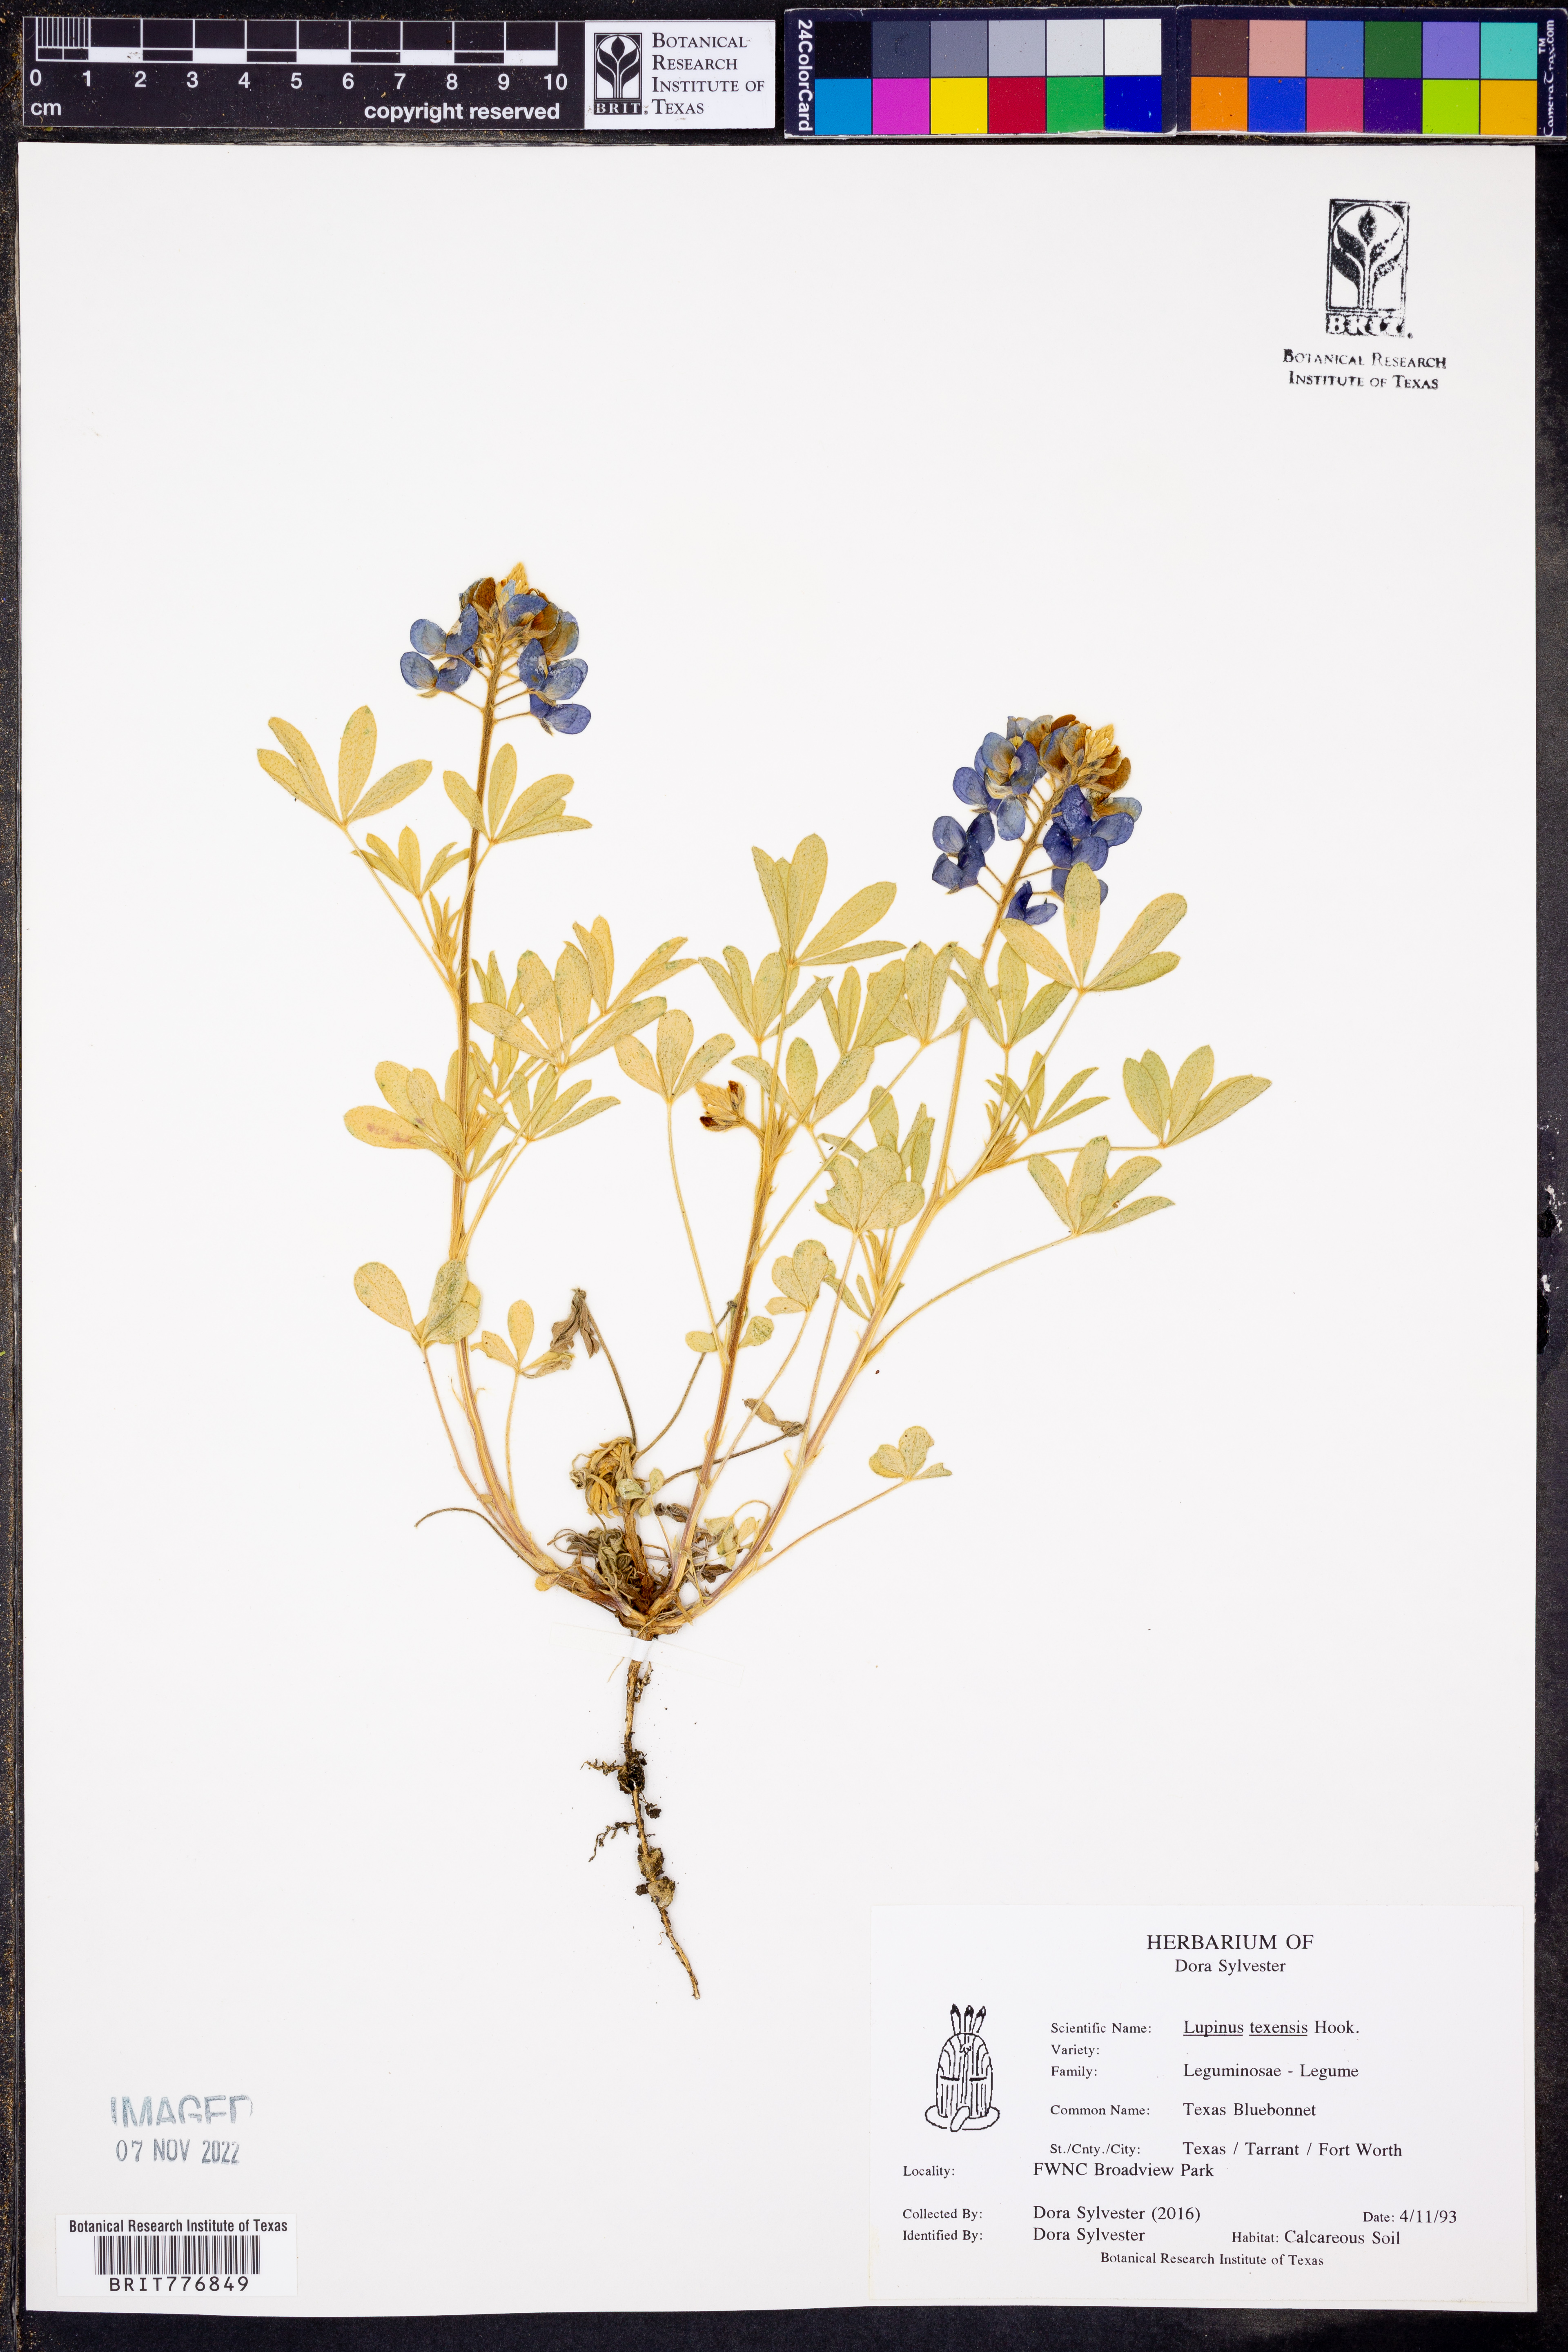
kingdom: Plantae
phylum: Tracheophyta
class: Magnoliopsida
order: Fabales
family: Fabaceae
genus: Lupinus
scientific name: Lupinus texensis
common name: Texas bluebonnet
